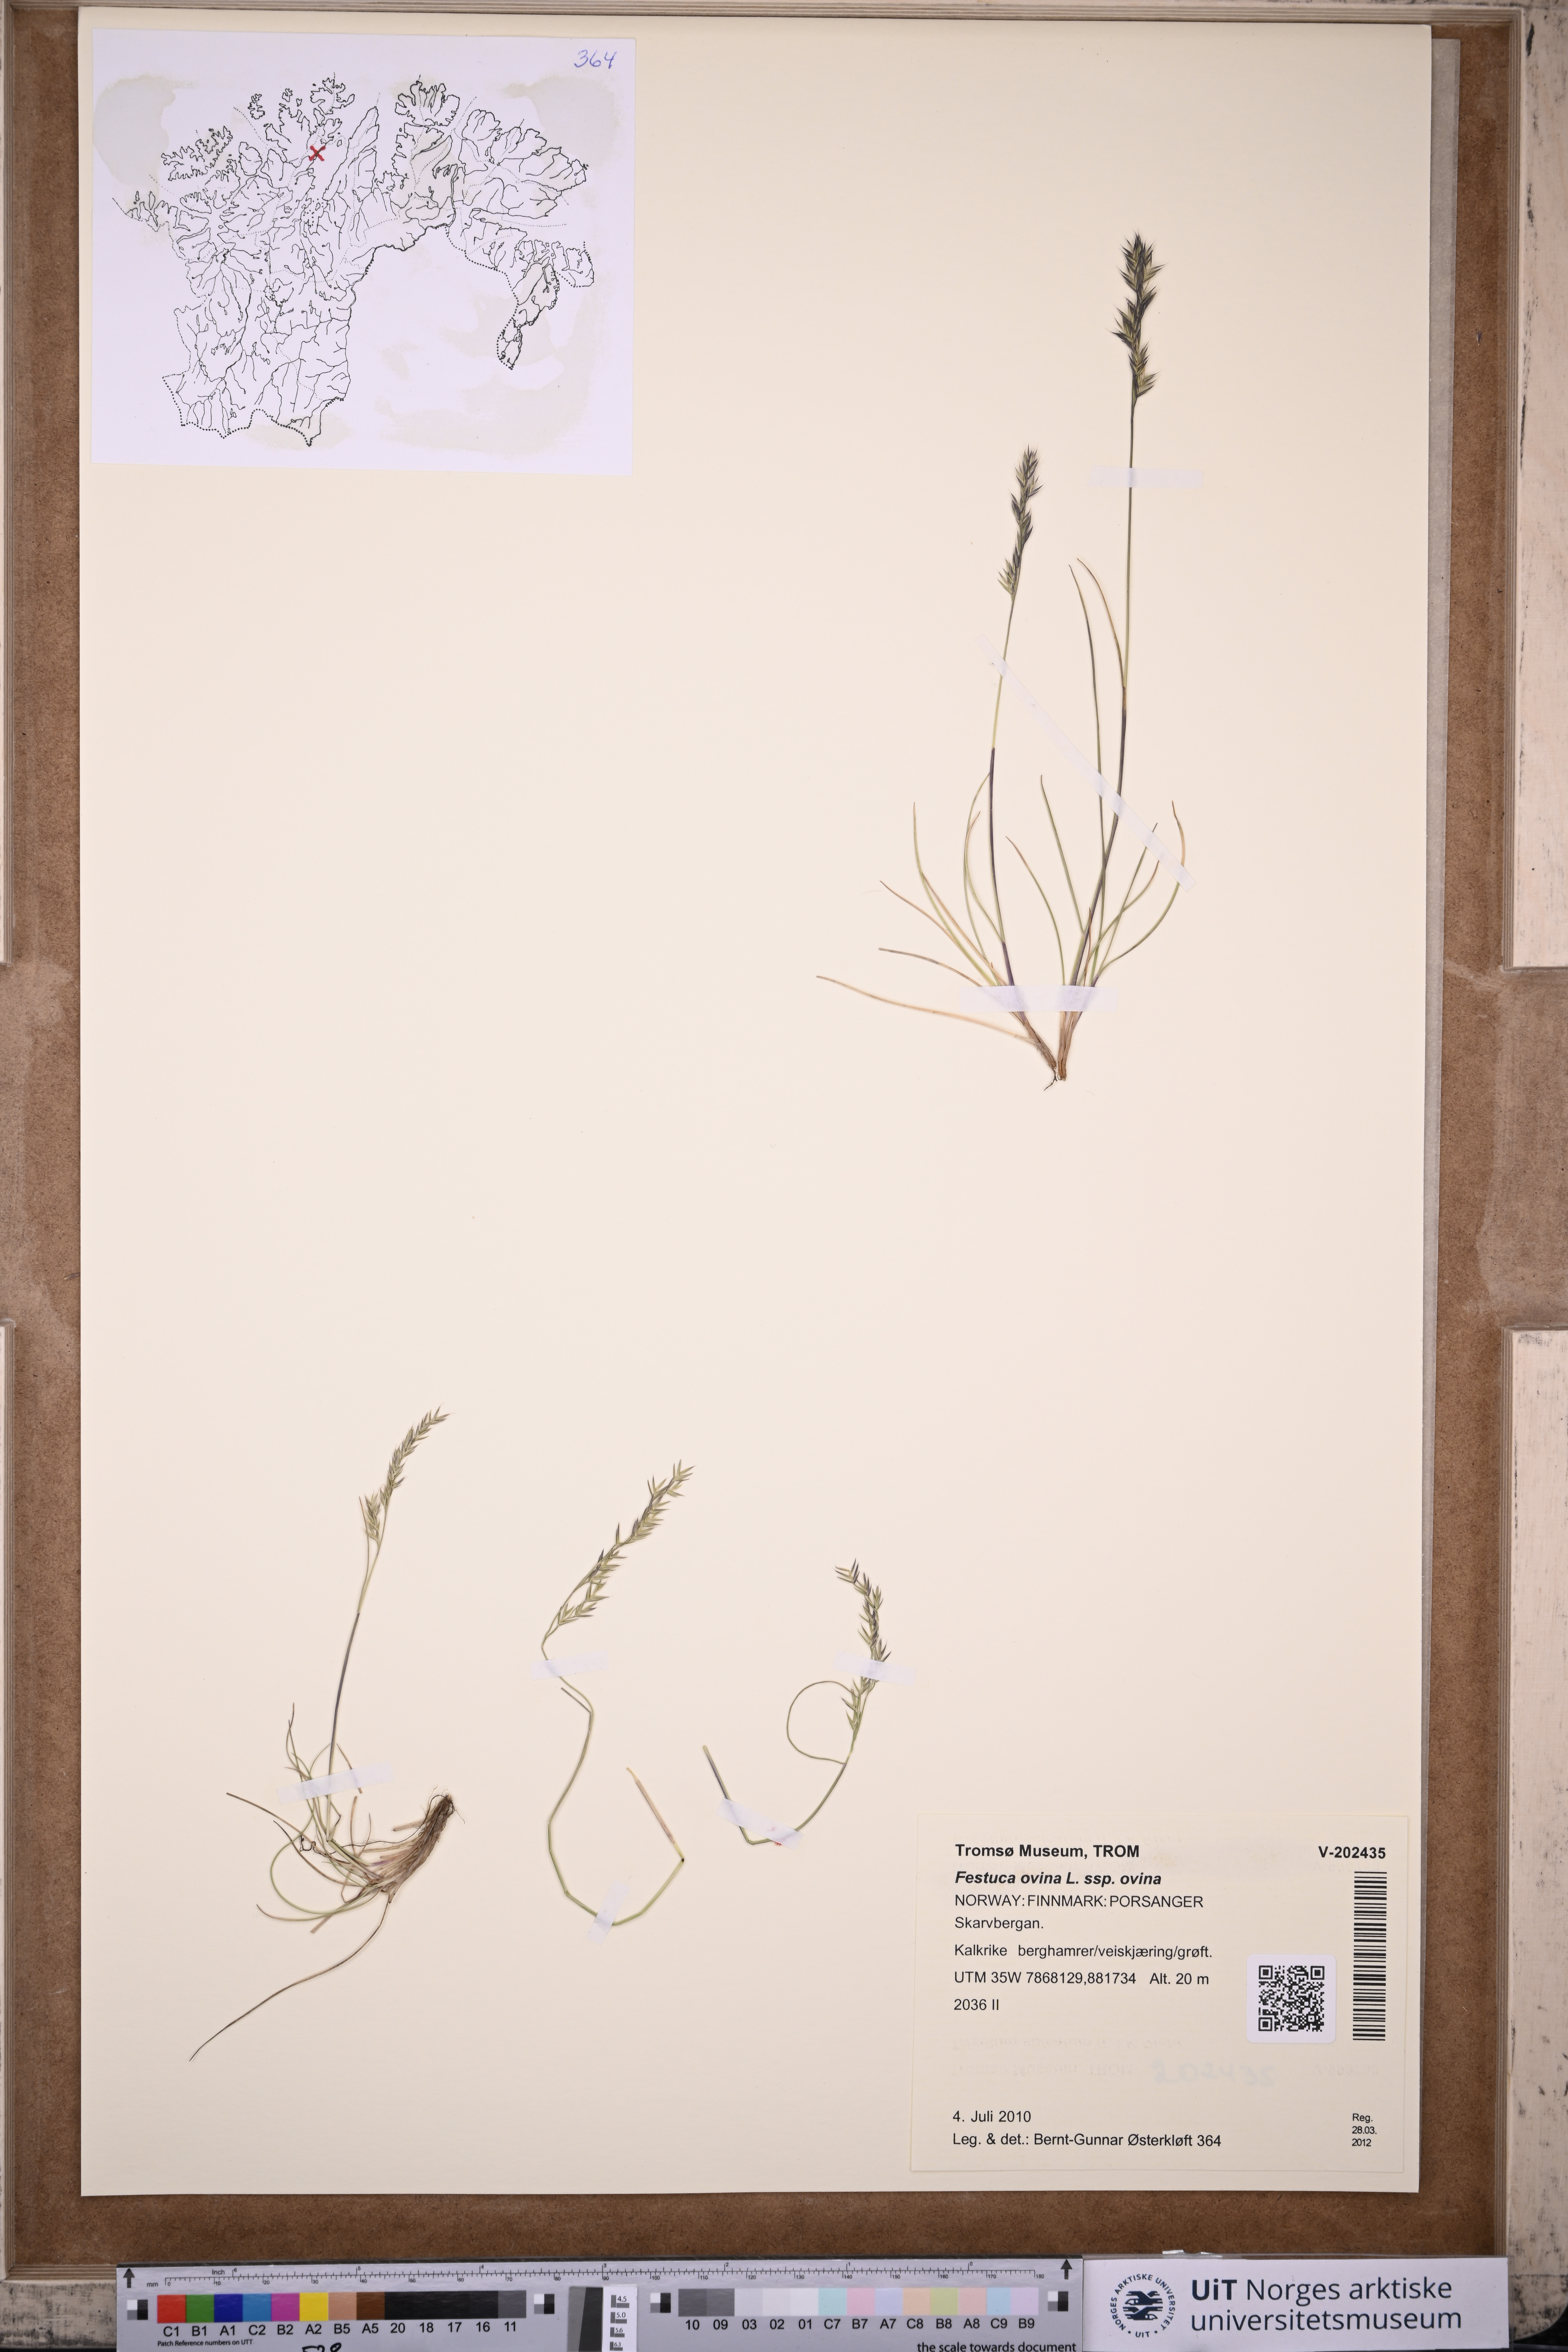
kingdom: Plantae
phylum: Tracheophyta
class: Liliopsida
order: Poales
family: Poaceae
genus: Festuca
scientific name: Festuca ovina
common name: Sheep fescue
